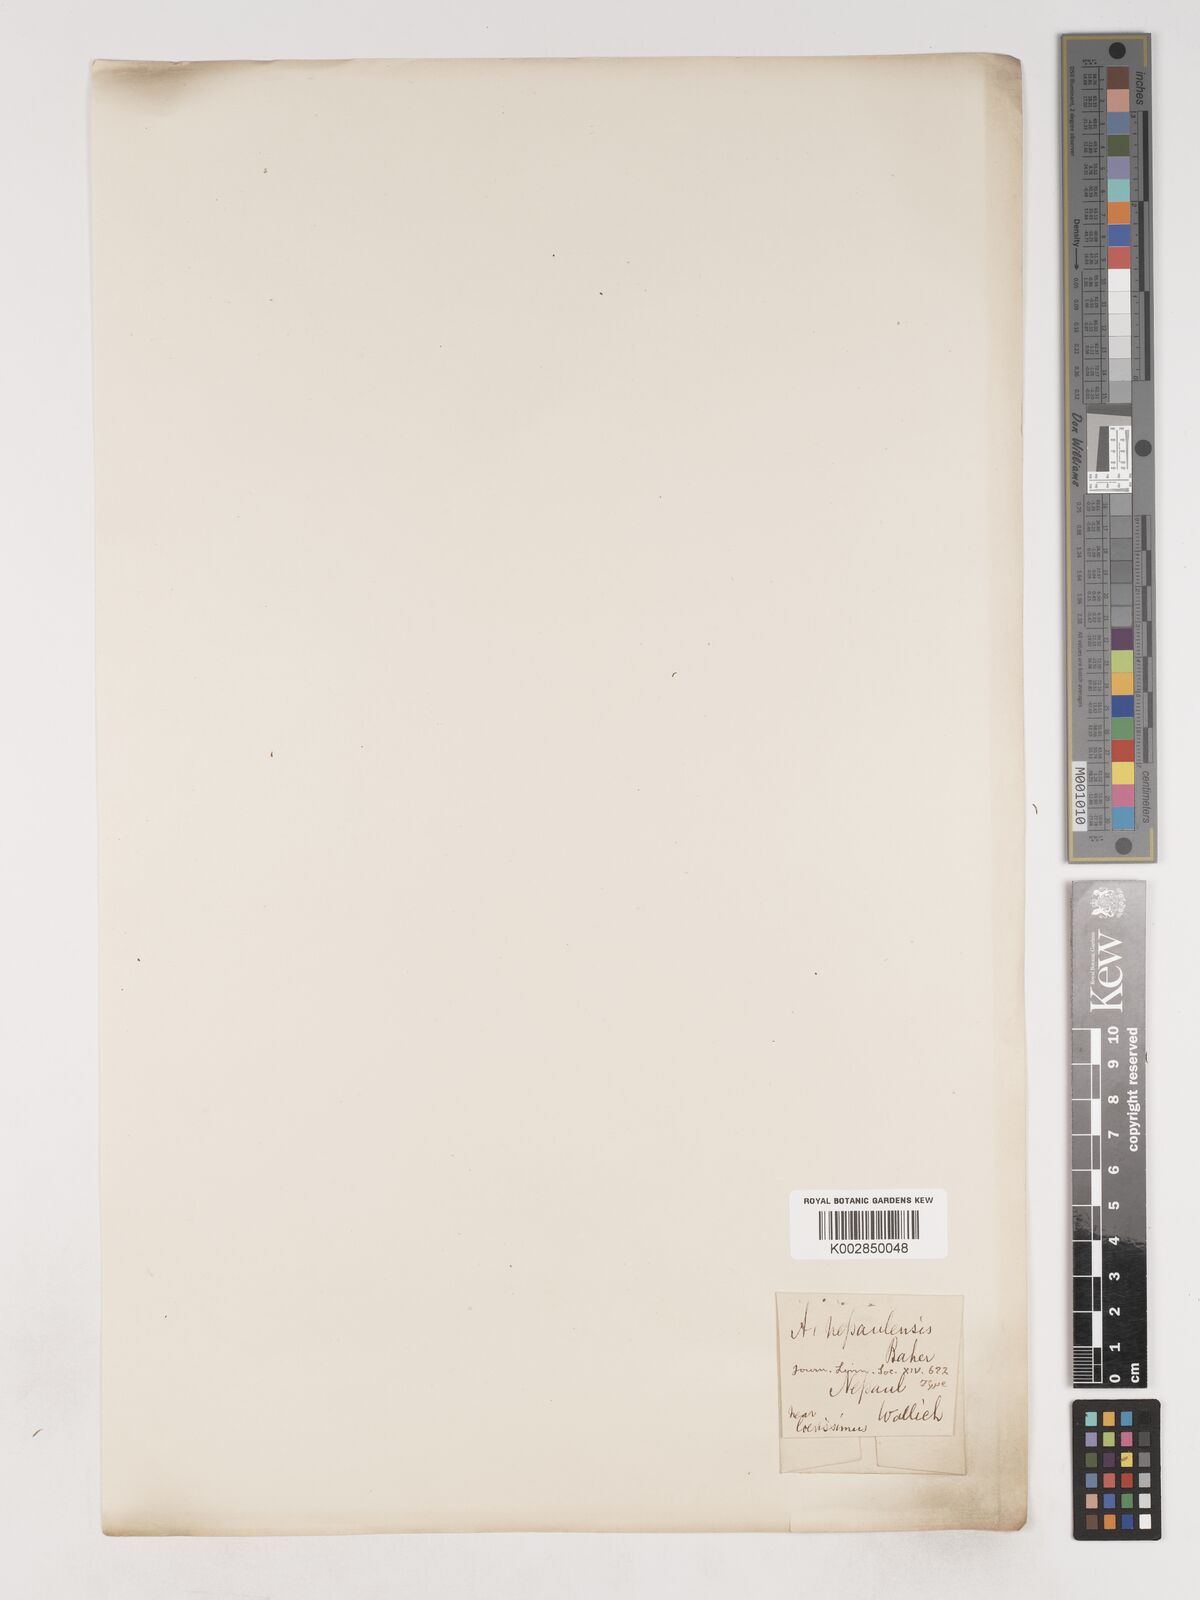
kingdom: Plantae
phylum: Tracheophyta
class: Liliopsida
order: Asparagales
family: Asparagaceae
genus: Asparagus
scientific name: Asparagus curillus
